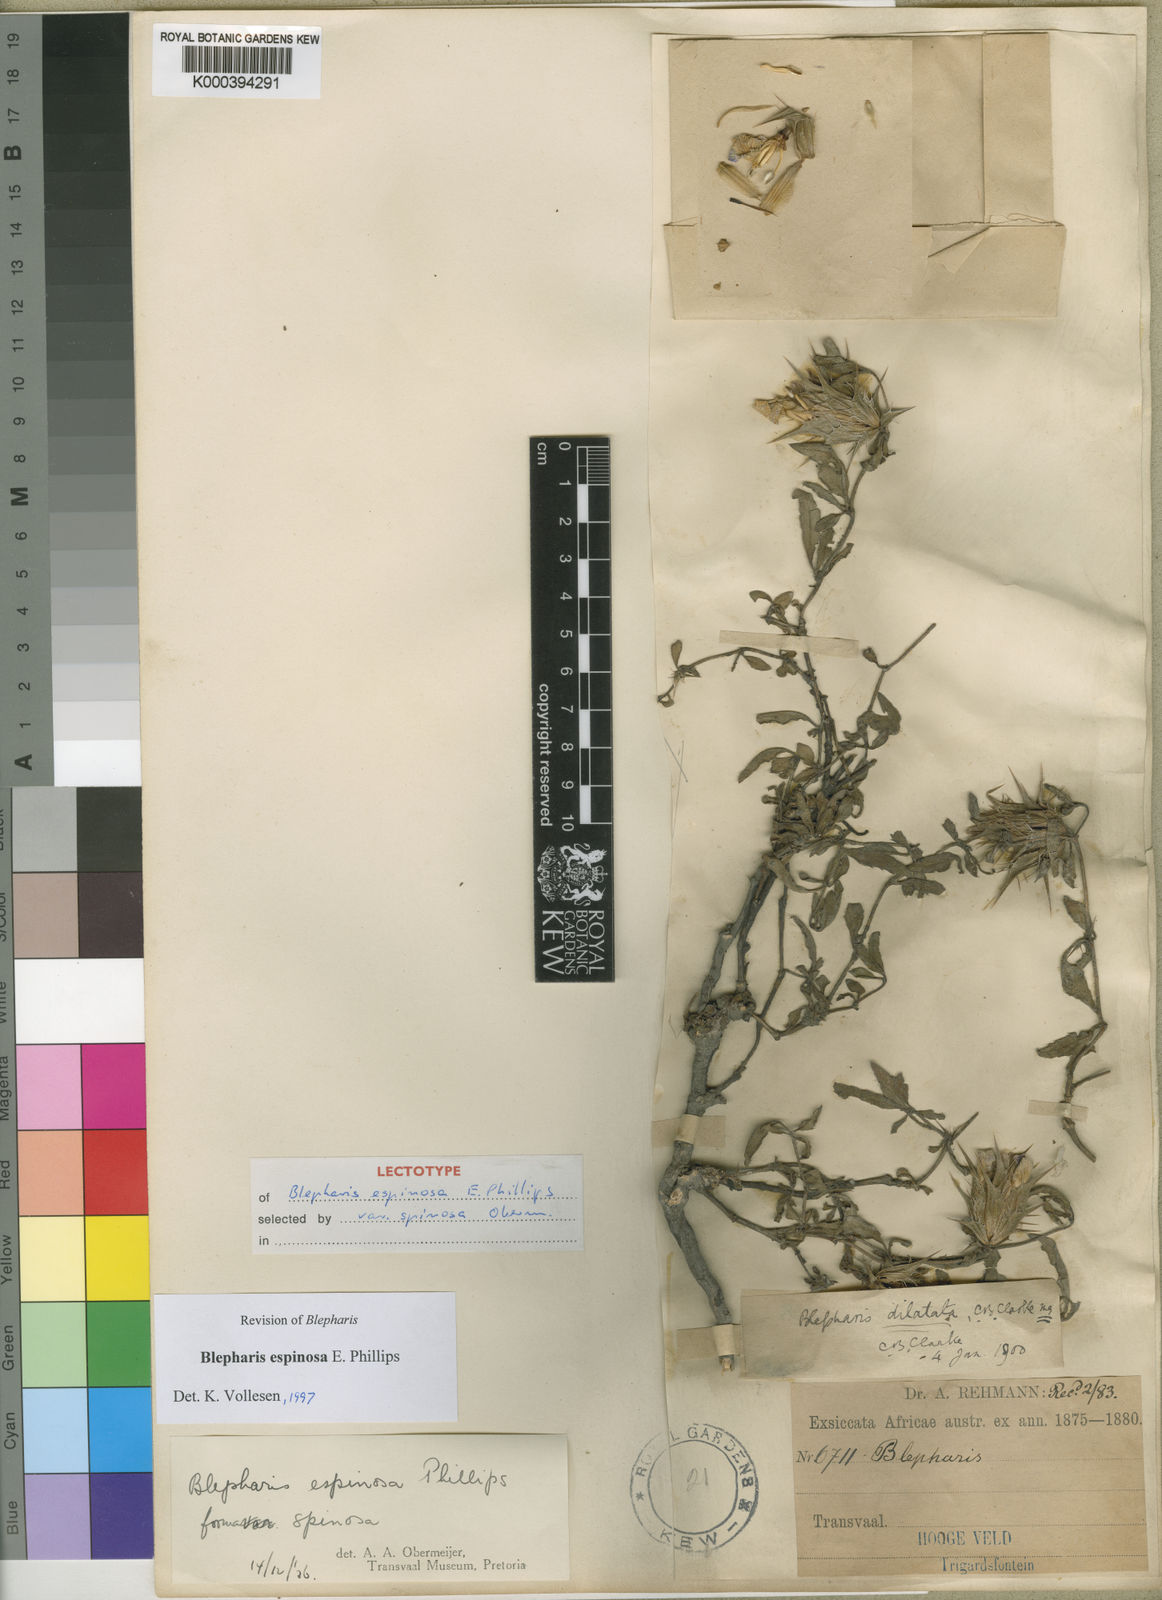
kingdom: Plantae
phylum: Tracheophyta
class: Magnoliopsida
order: Lamiales
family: Acanthaceae
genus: Blepharis
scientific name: Blepharis espinosa
